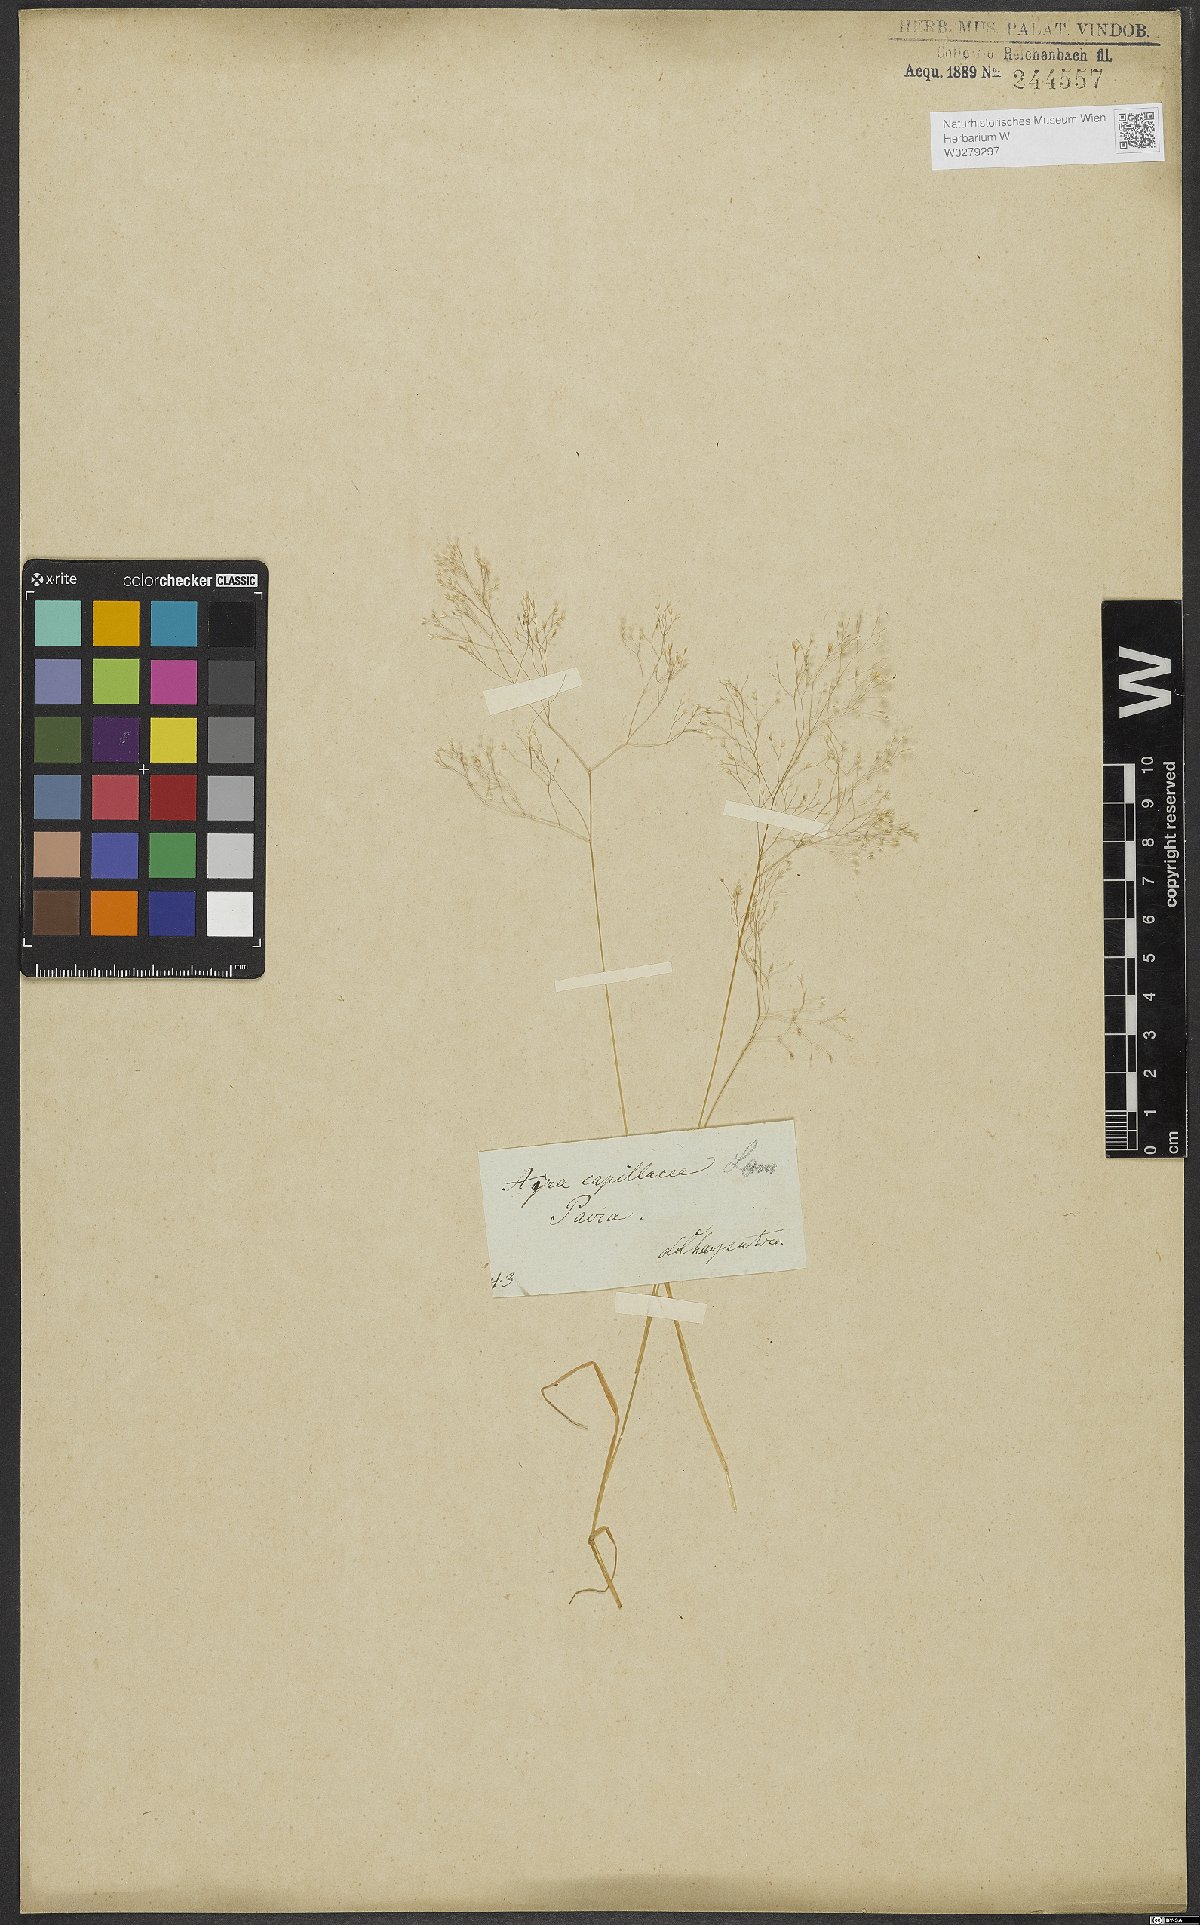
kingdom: Plantae
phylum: Tracheophyta
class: Liliopsida
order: Poales
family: Poaceae
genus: Molineriella
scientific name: Molineriella laevis
